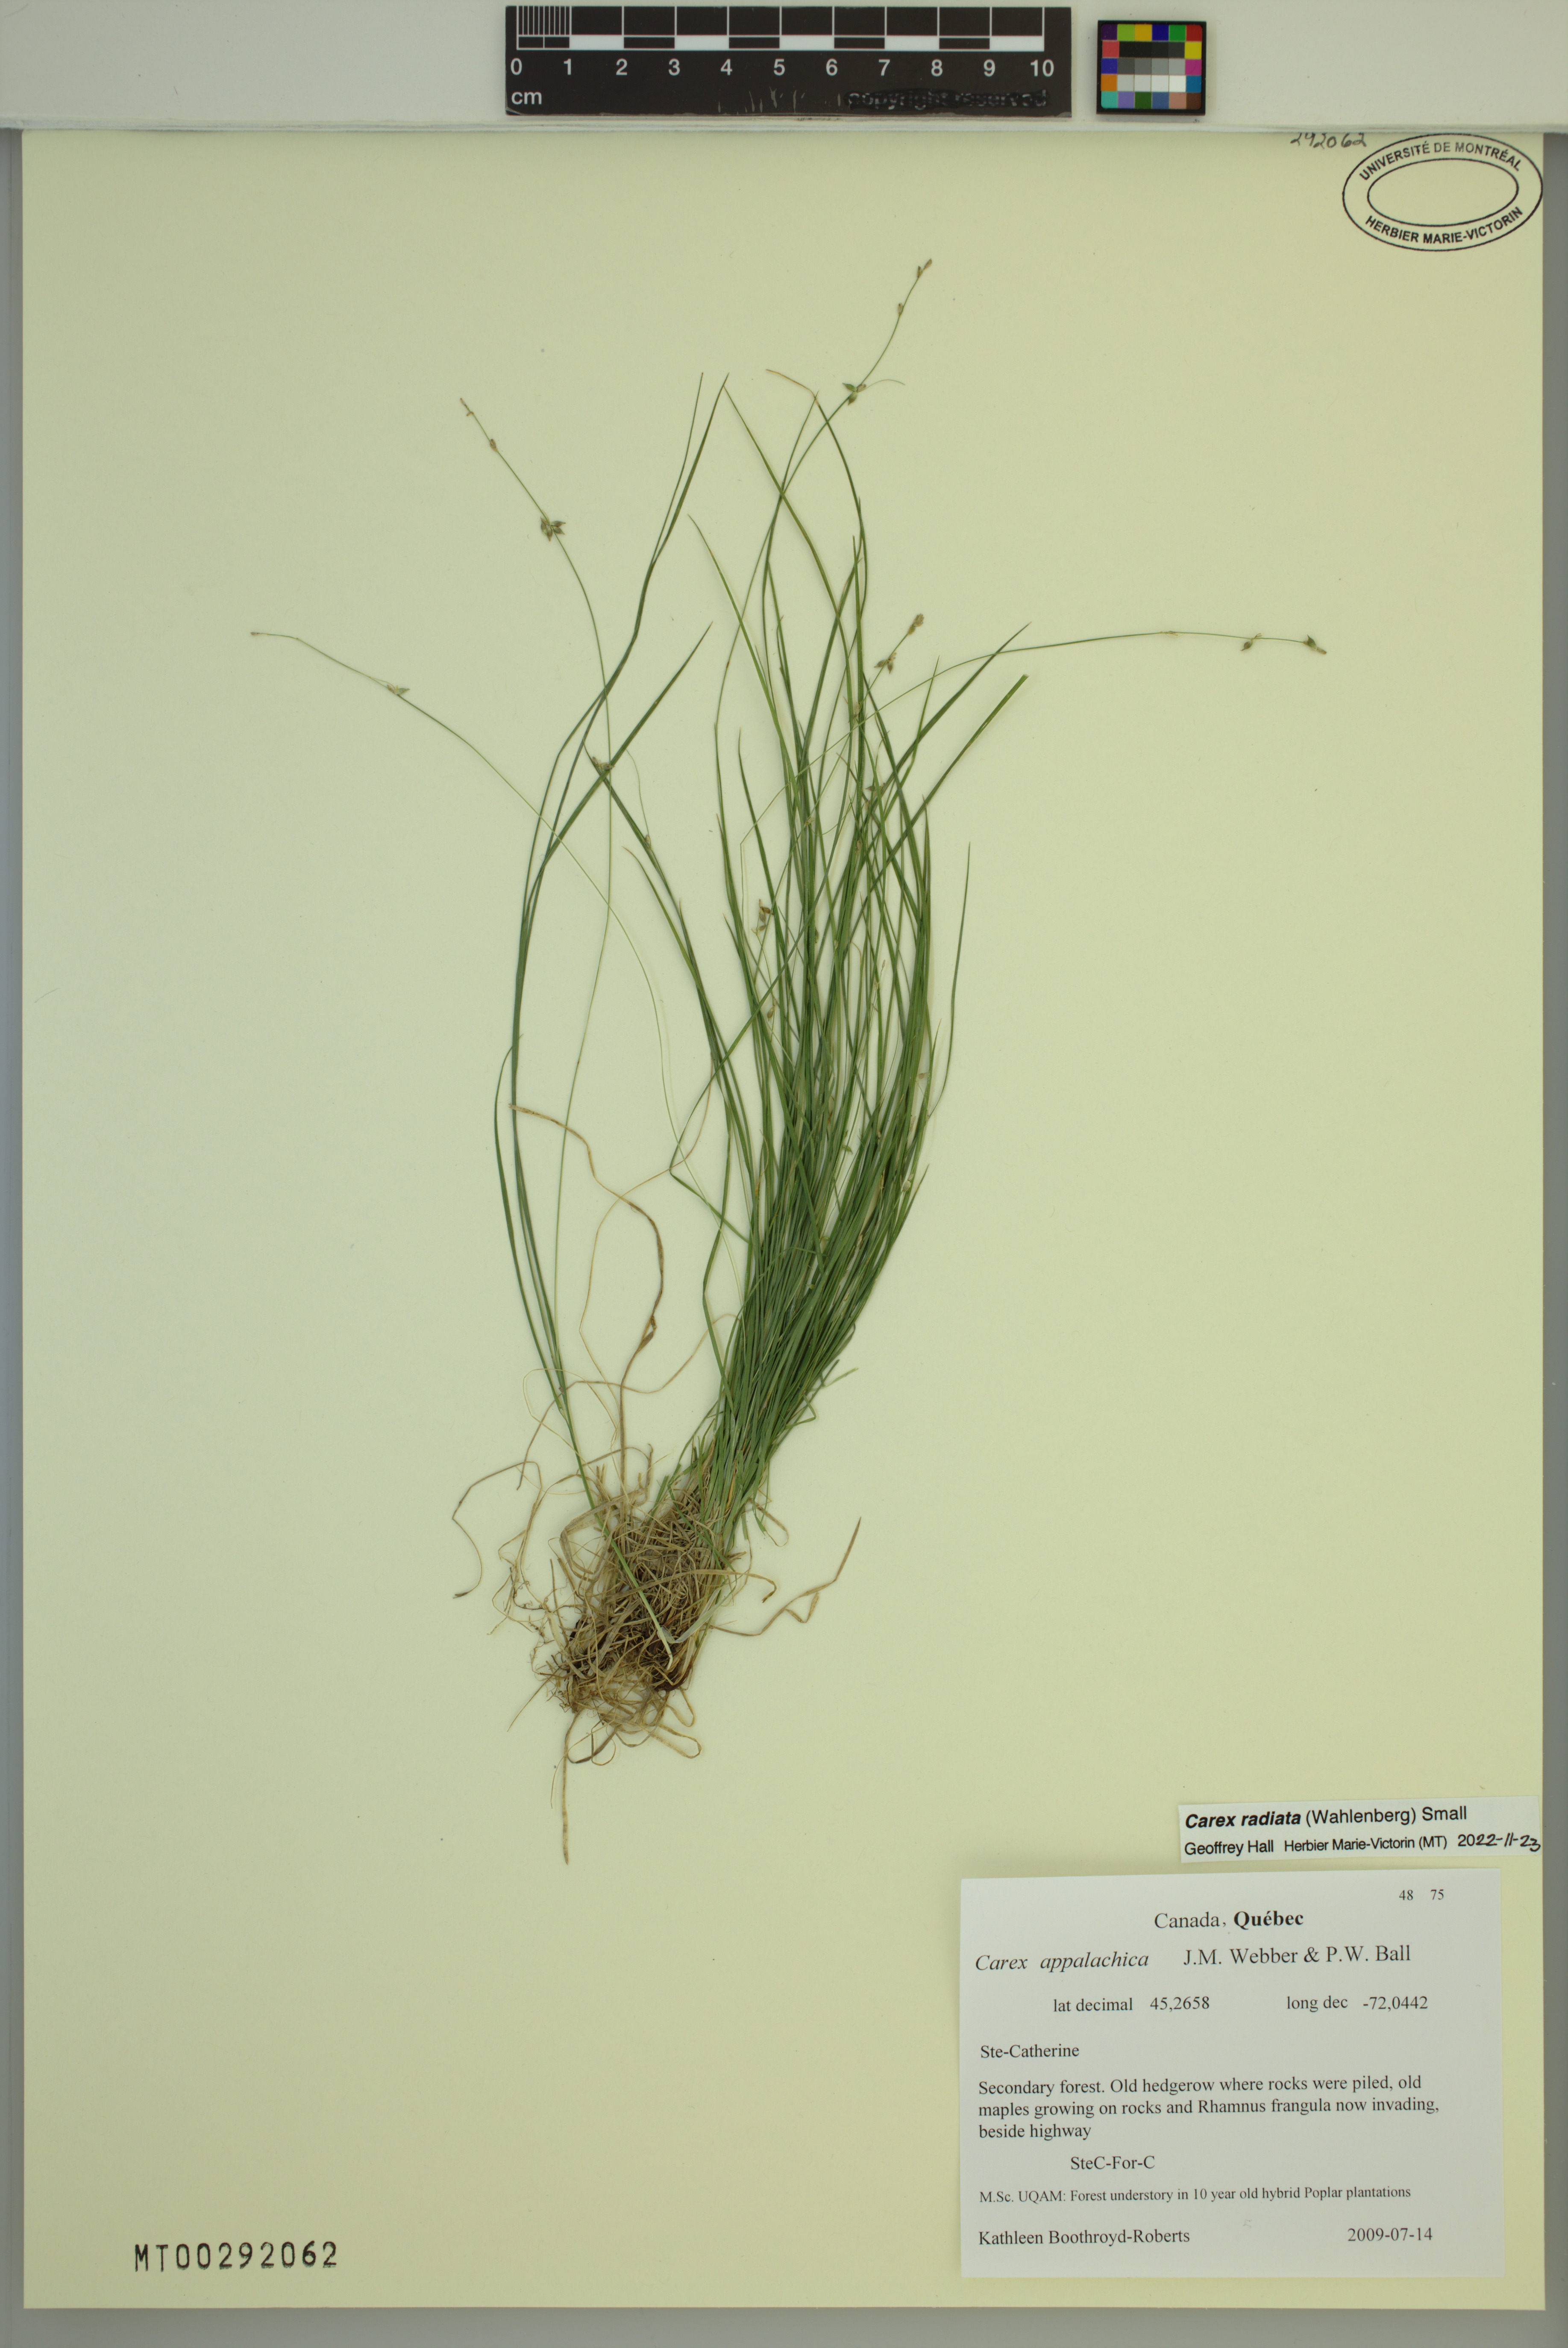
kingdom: Plantae
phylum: Tracheophyta
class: Liliopsida
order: Poales
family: Cyperaceae
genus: Carex
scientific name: Carex radiata
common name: Eastern star sedge
